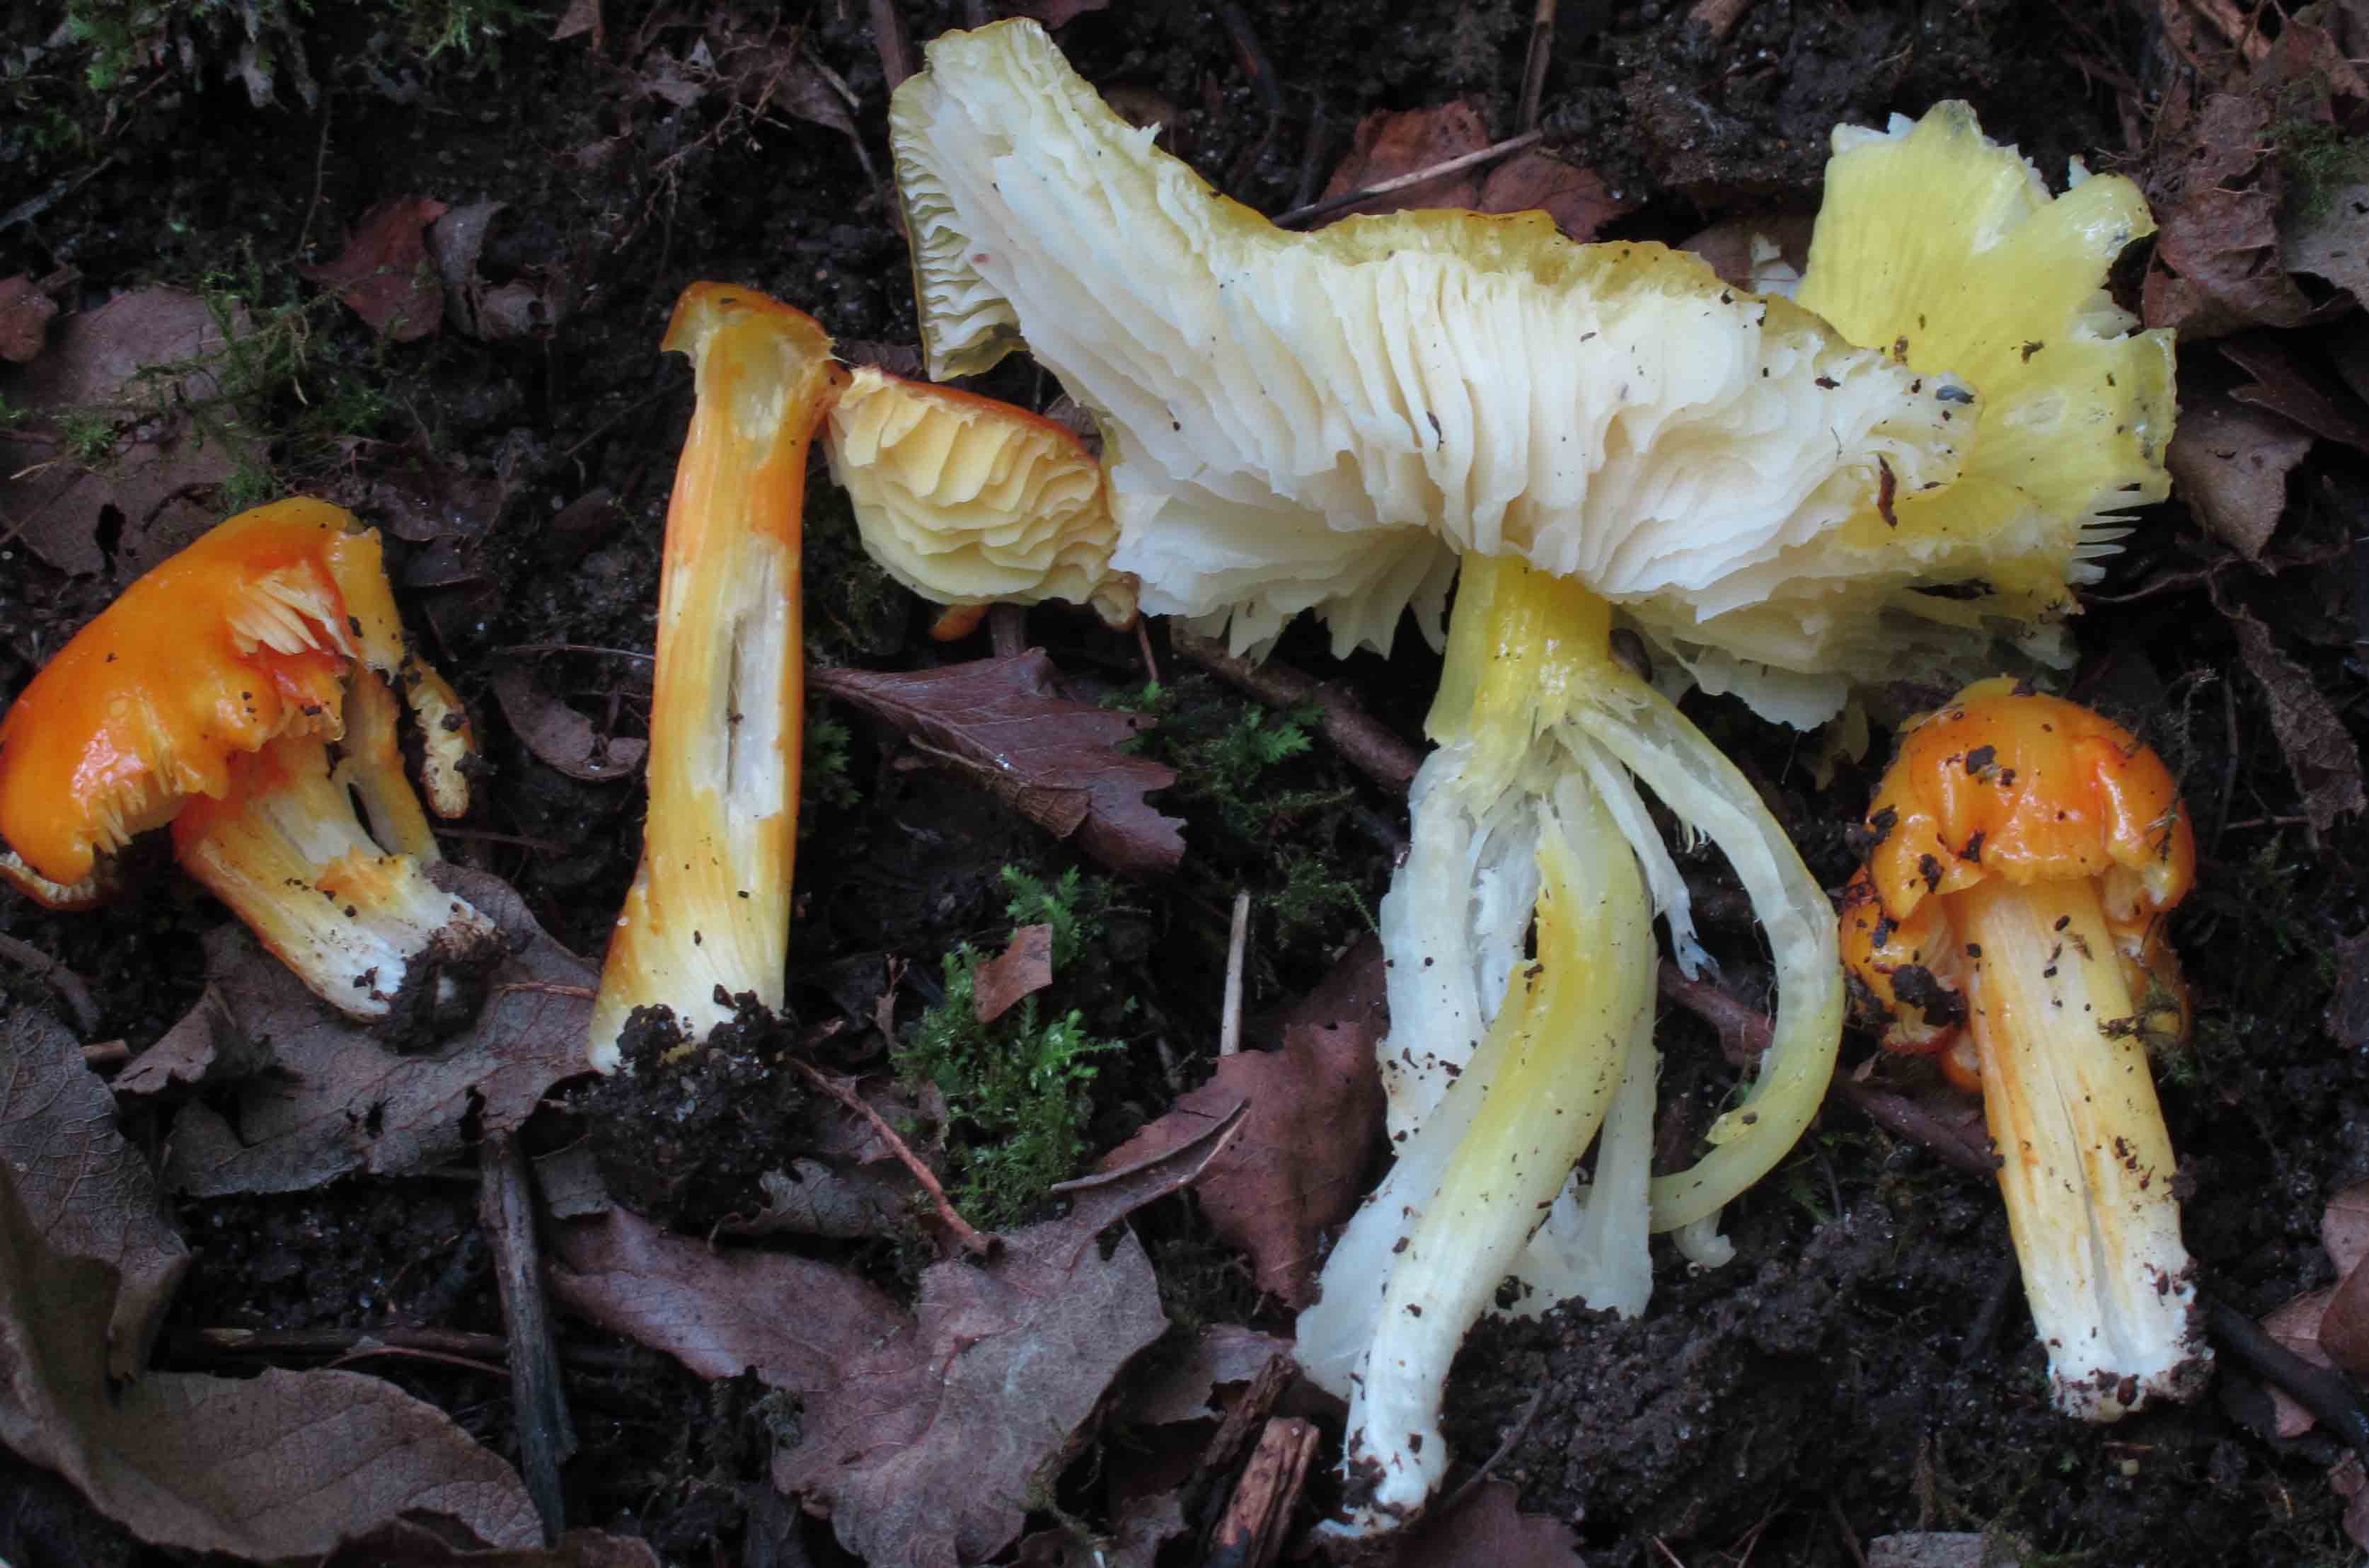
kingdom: Fungi
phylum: Basidiomycota
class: Agaricomycetes
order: Agaricales
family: Hygrophoraceae
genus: Hygrocybe
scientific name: Hygrocybe acutoconica
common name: Konrads vokshat
